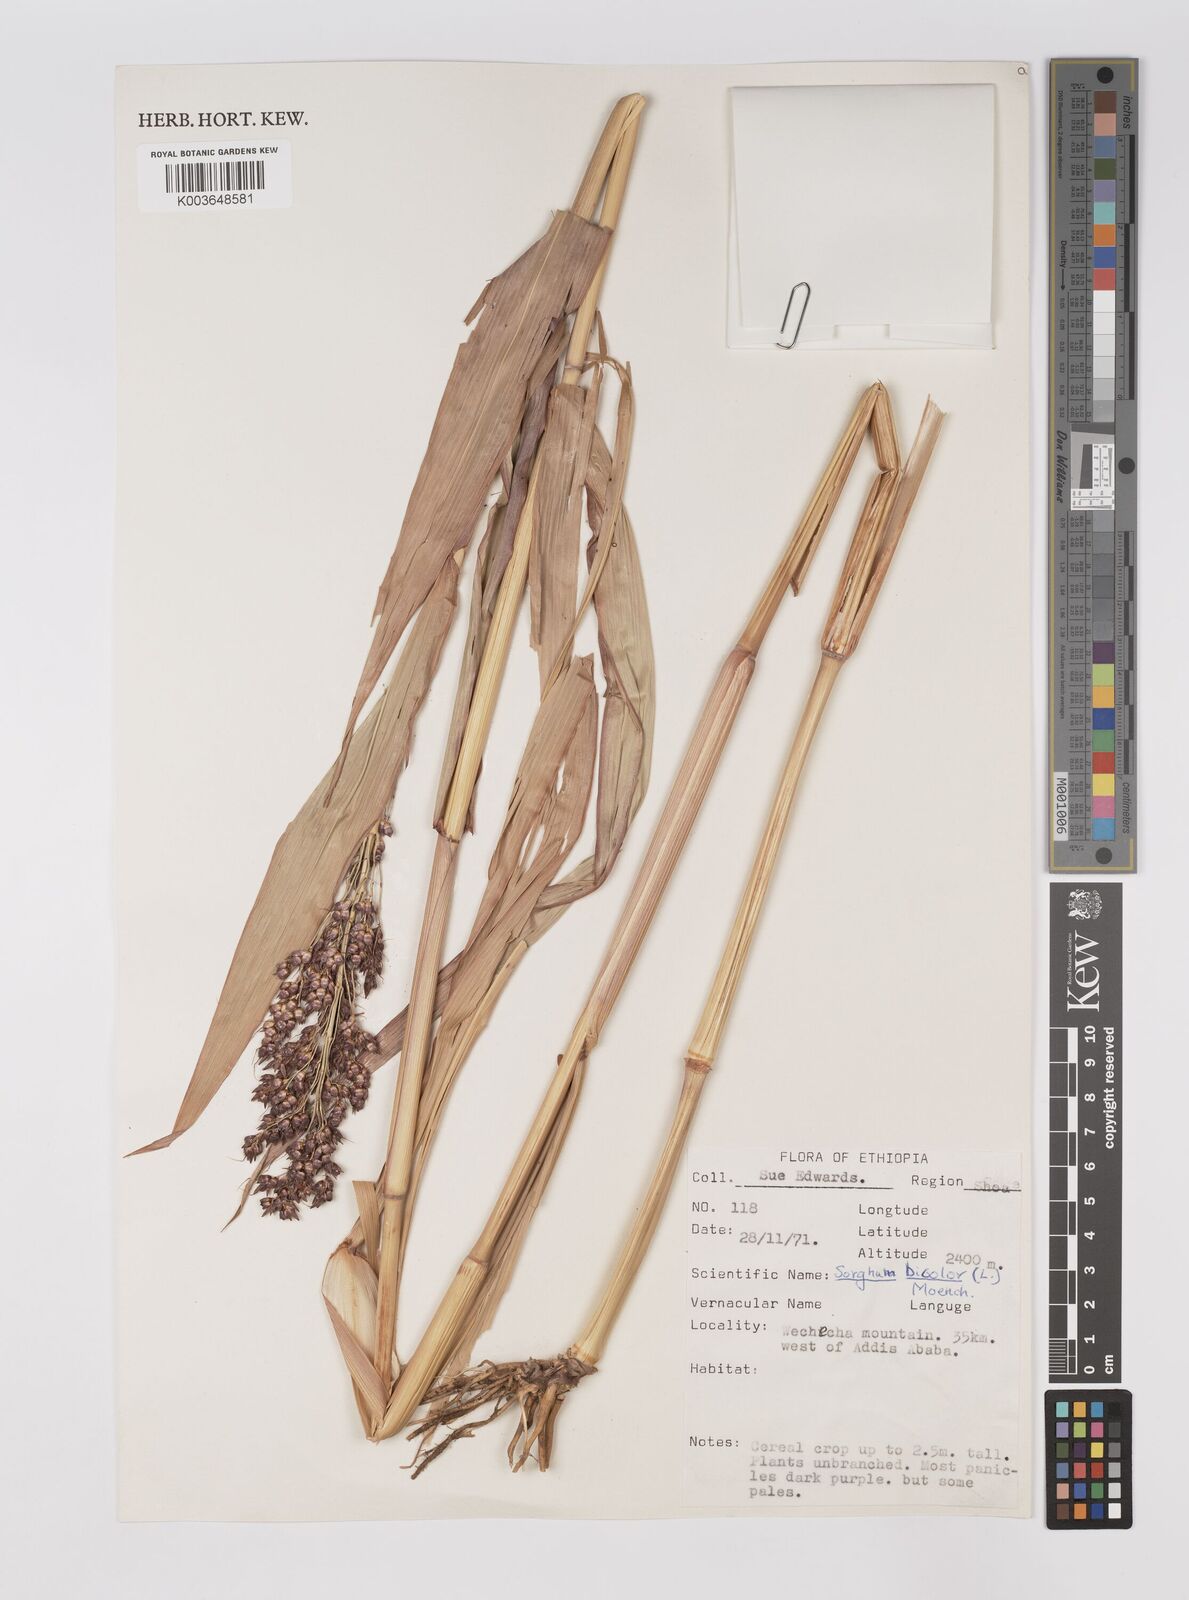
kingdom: Plantae
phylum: Tracheophyta
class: Liliopsida
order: Poales
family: Poaceae
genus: Hyparrhenia
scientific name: Hyparrhenia dichroa
